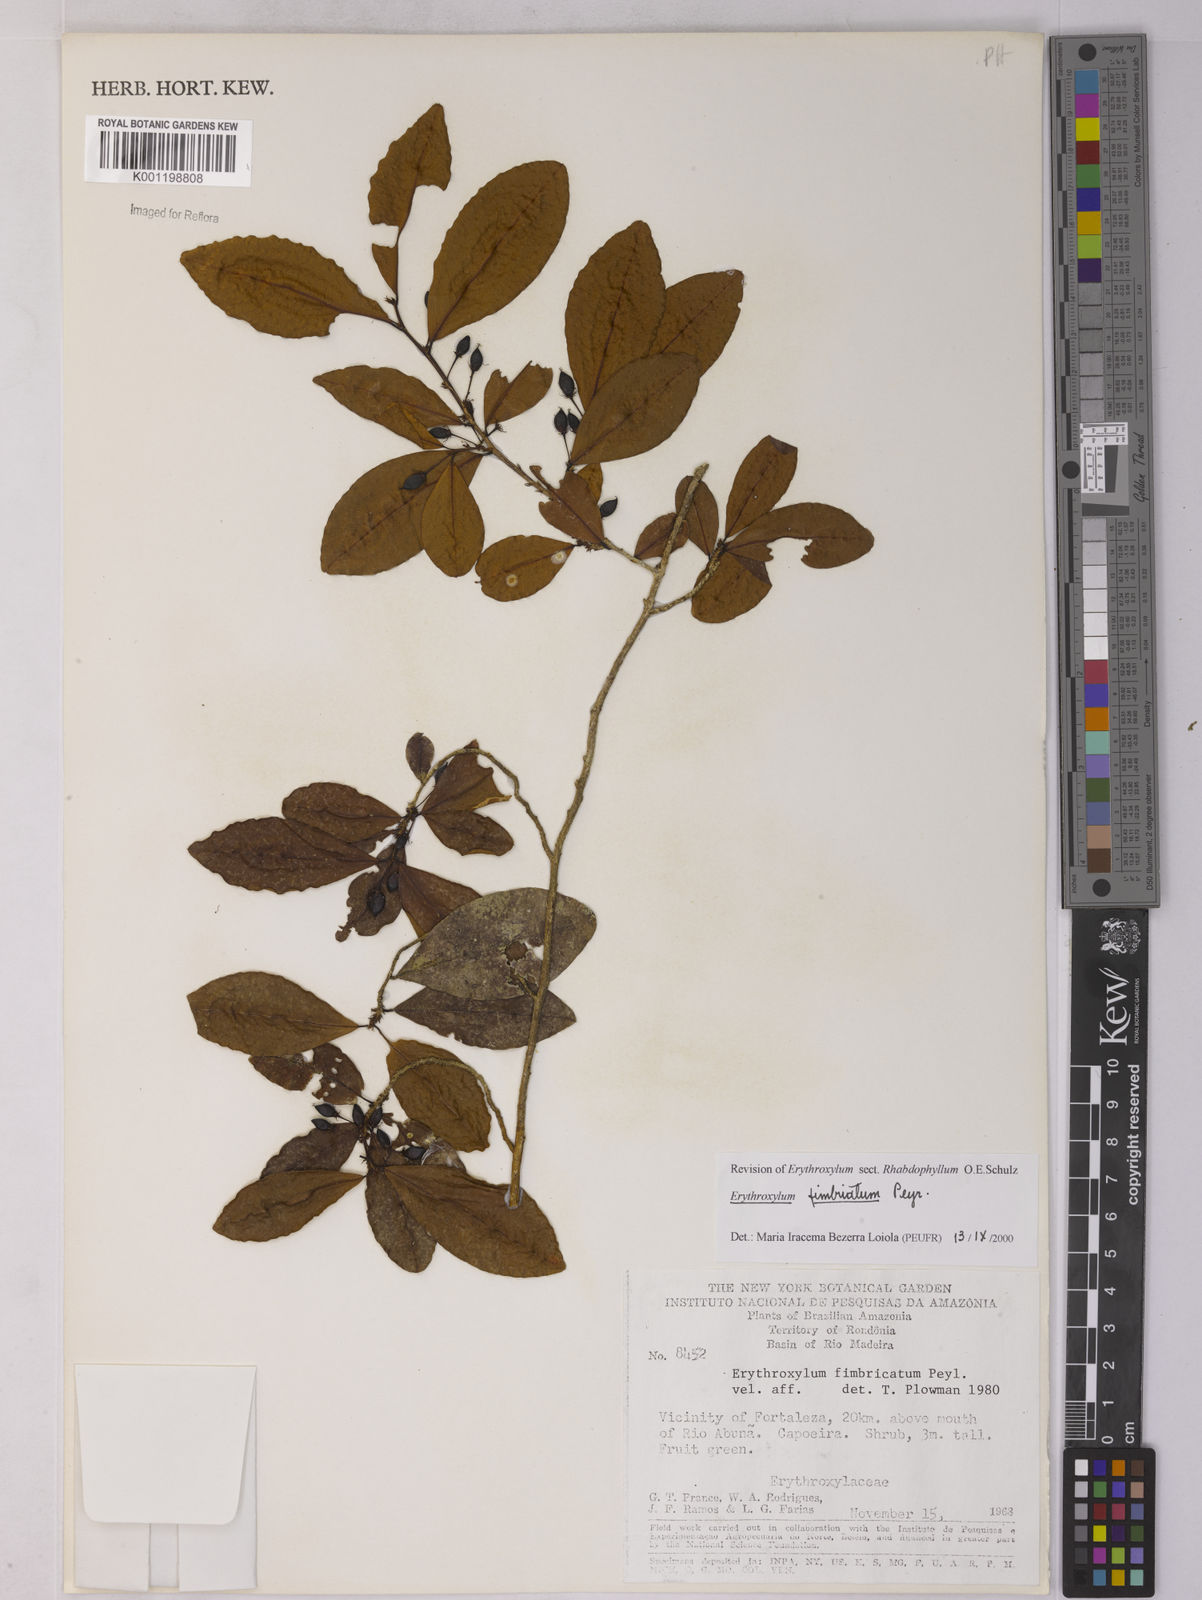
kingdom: Plantae
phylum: Tracheophyta
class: Magnoliopsida
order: Malpighiales
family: Erythroxylaceae
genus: Erythroxylum
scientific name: Erythroxylum fimbriatum
